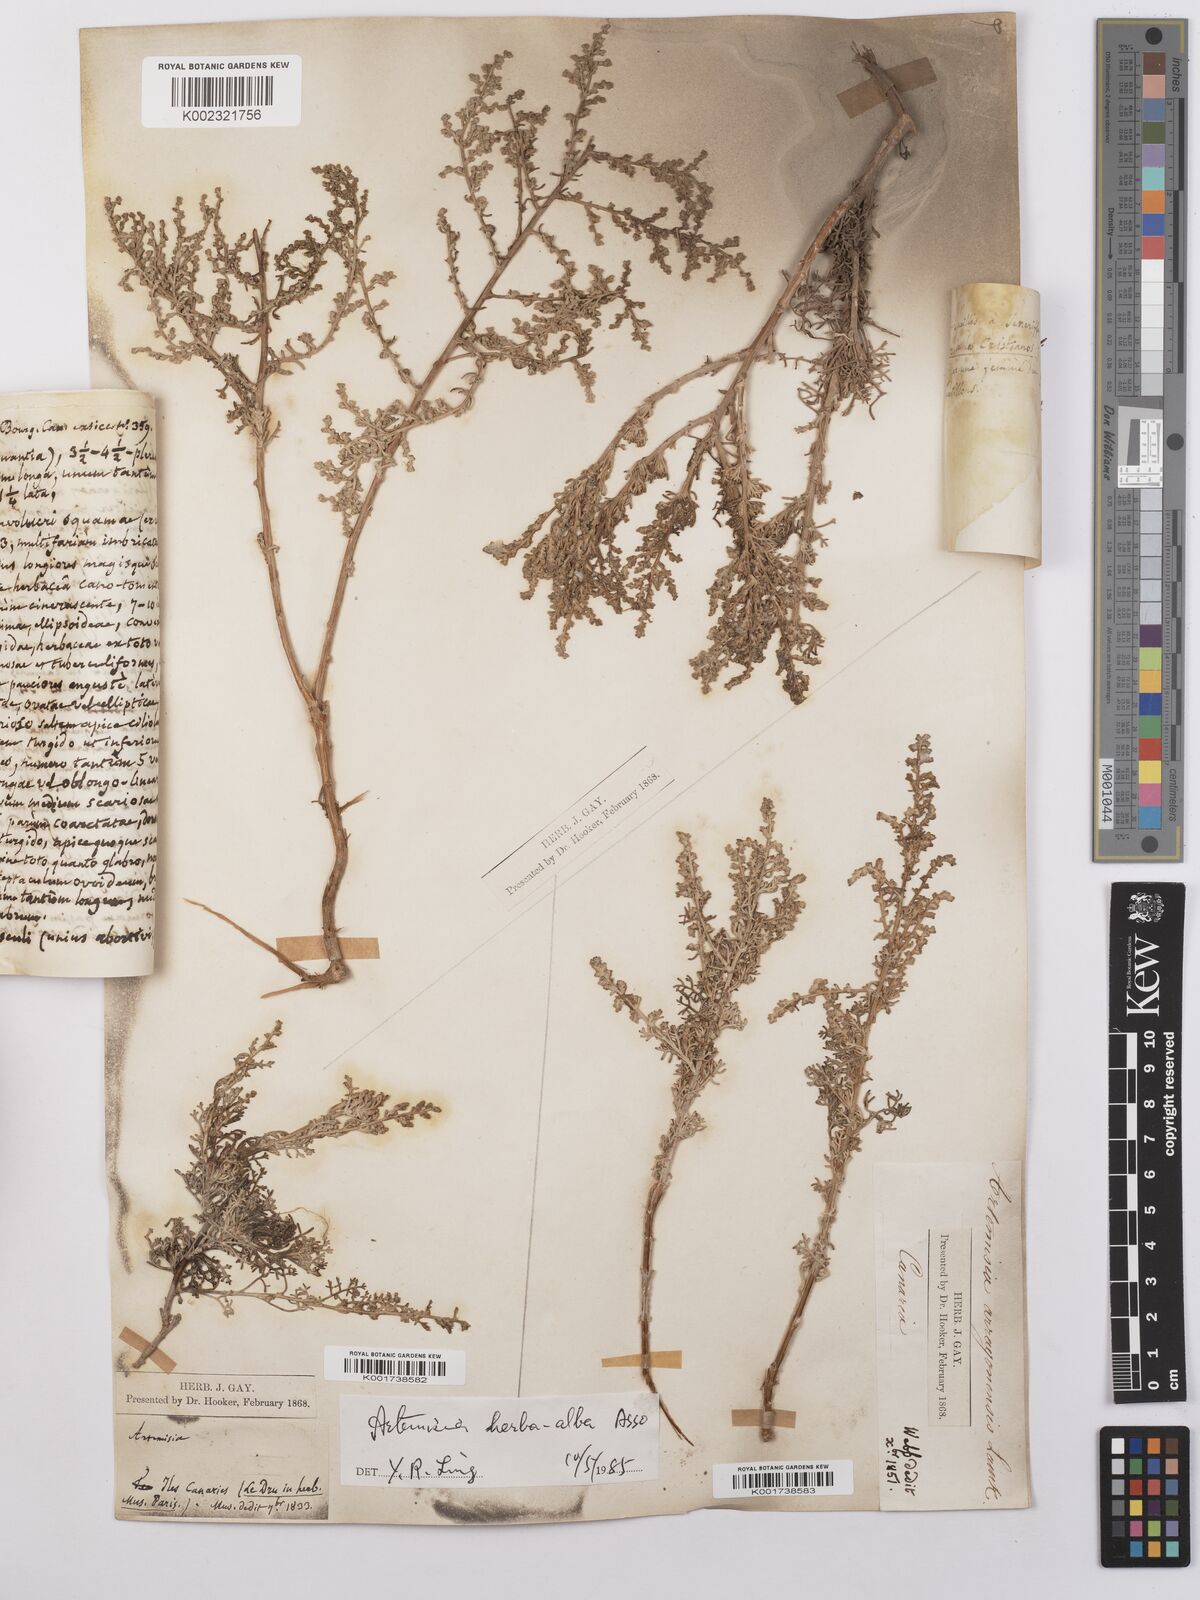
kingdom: Plantae
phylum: Tracheophyta
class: Magnoliopsida
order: Asterales
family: Asteraceae
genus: Artemisia
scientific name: Artemisia herba-alba
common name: White wormwood
